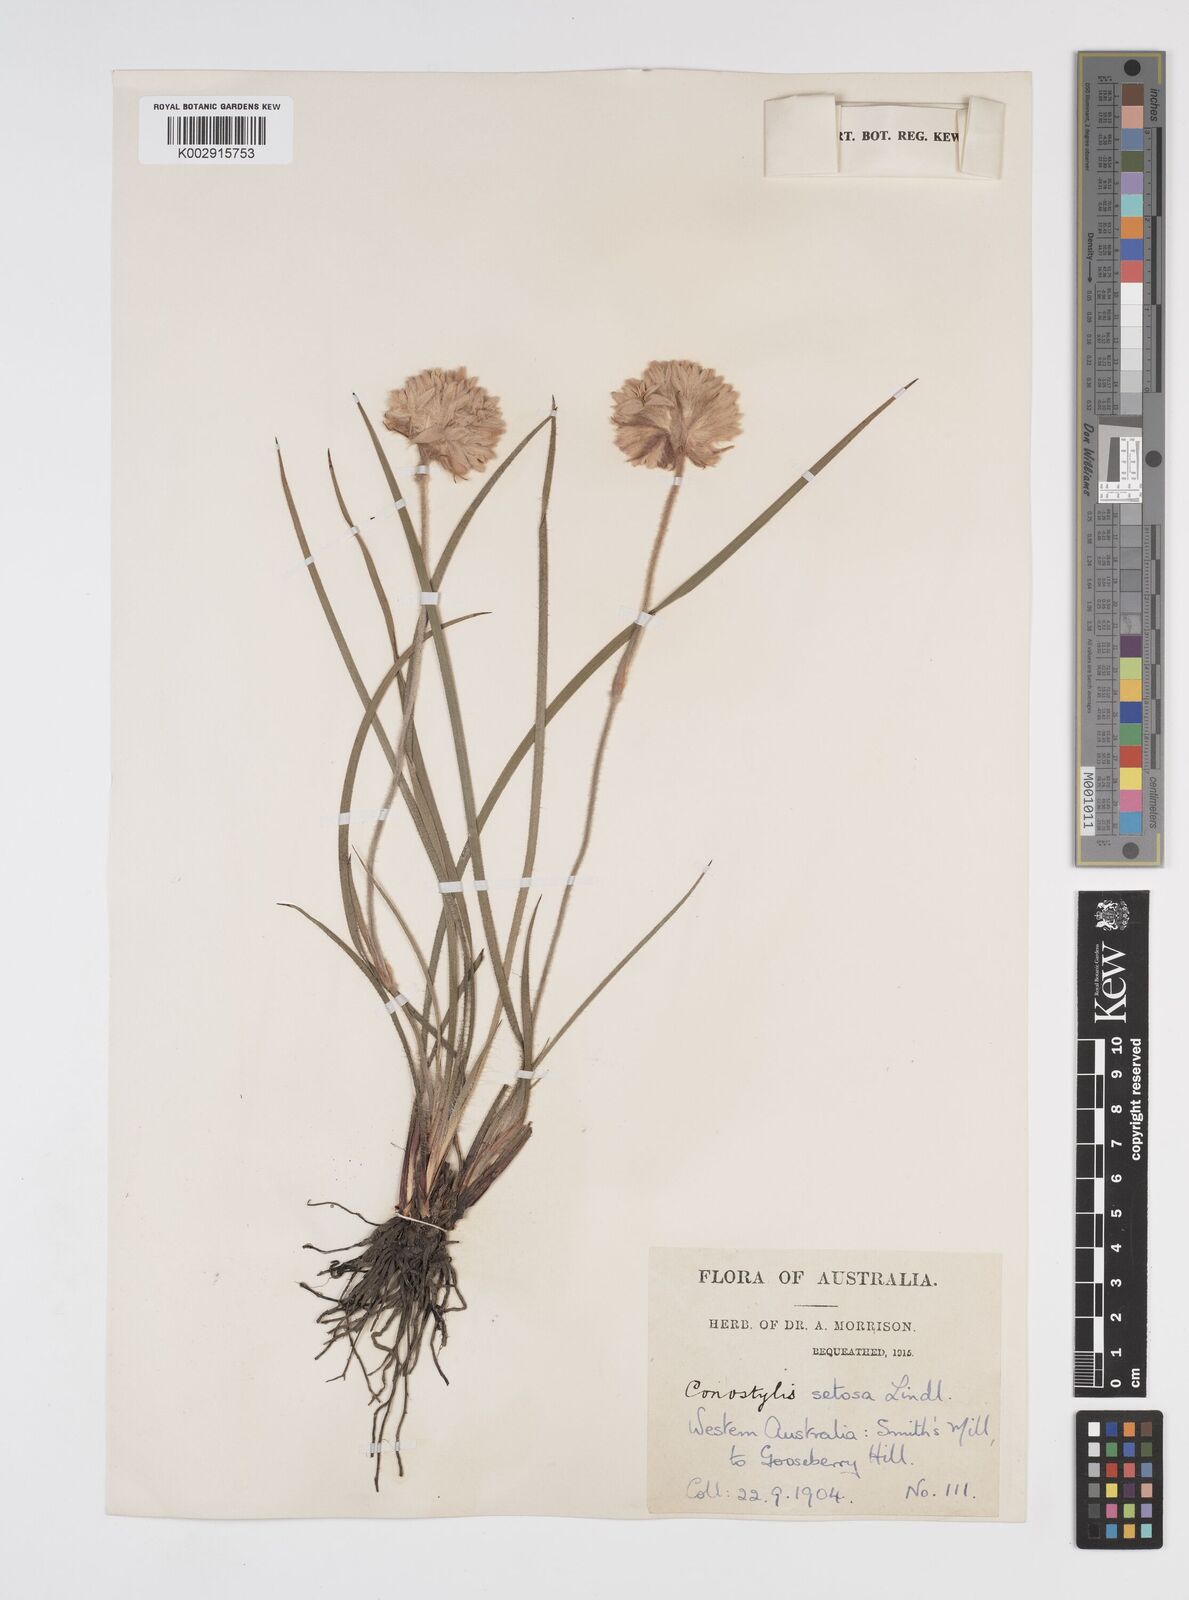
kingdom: Plantae
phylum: Tracheophyta
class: Liliopsida
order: Commelinales
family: Haemodoraceae
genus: Conostylis
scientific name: Conostylis setosa
